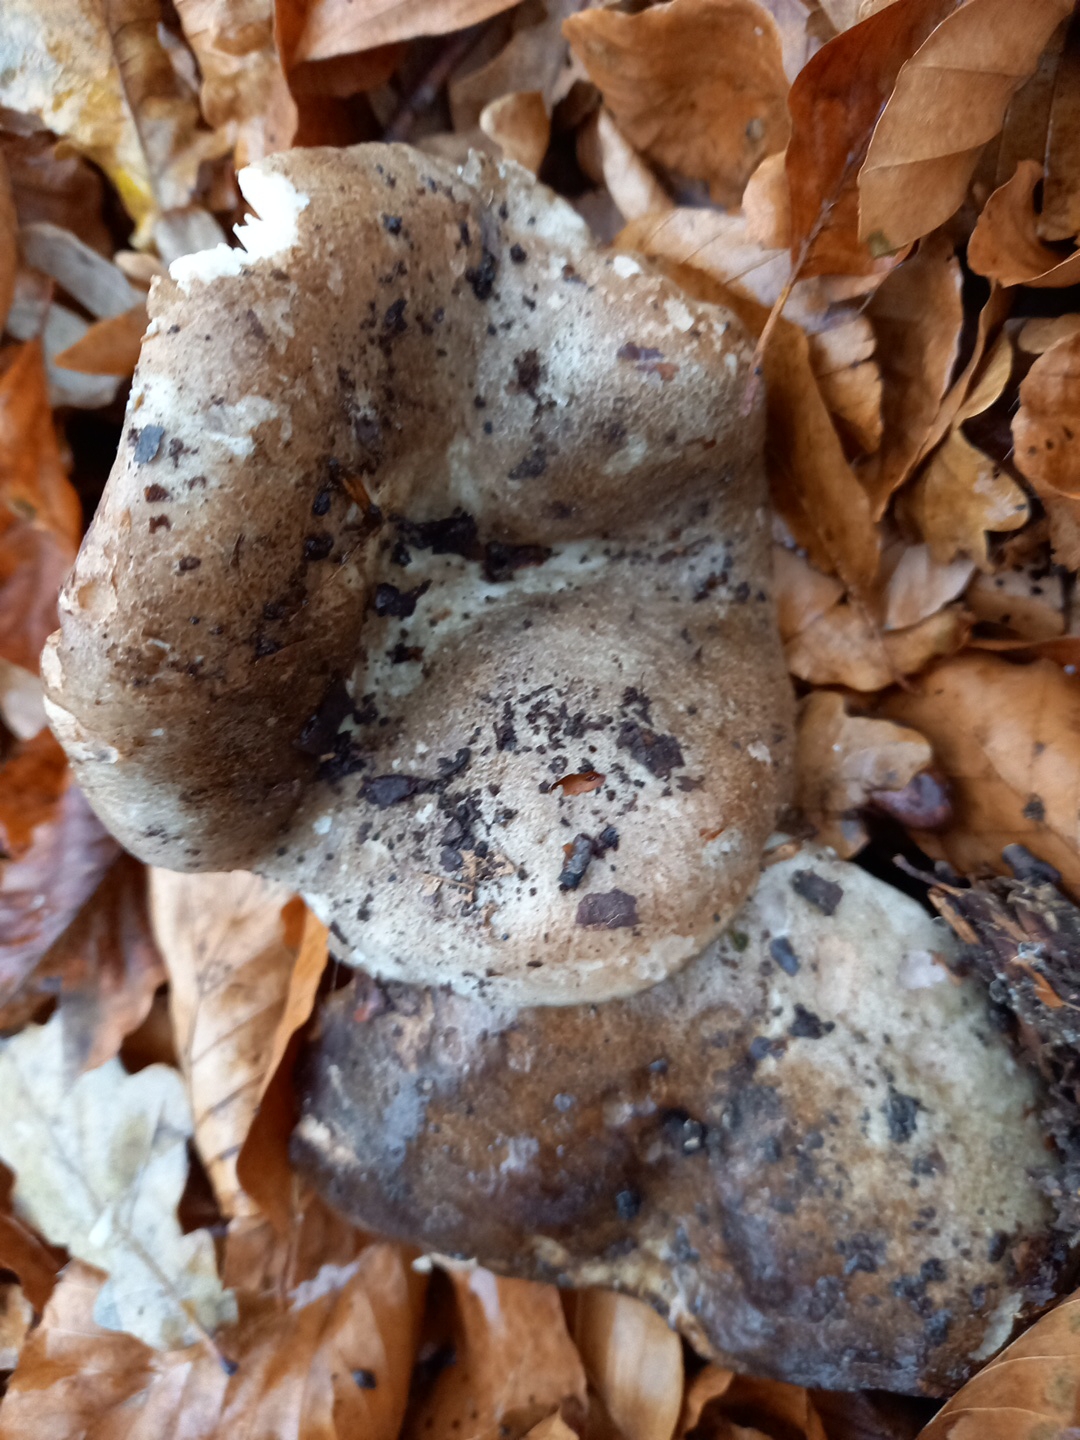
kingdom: Fungi
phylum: Basidiomycota
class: Agaricomycetes
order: Russulales
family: Russulaceae
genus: Russula
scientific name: Russula adusta
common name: sværtende skørhat
